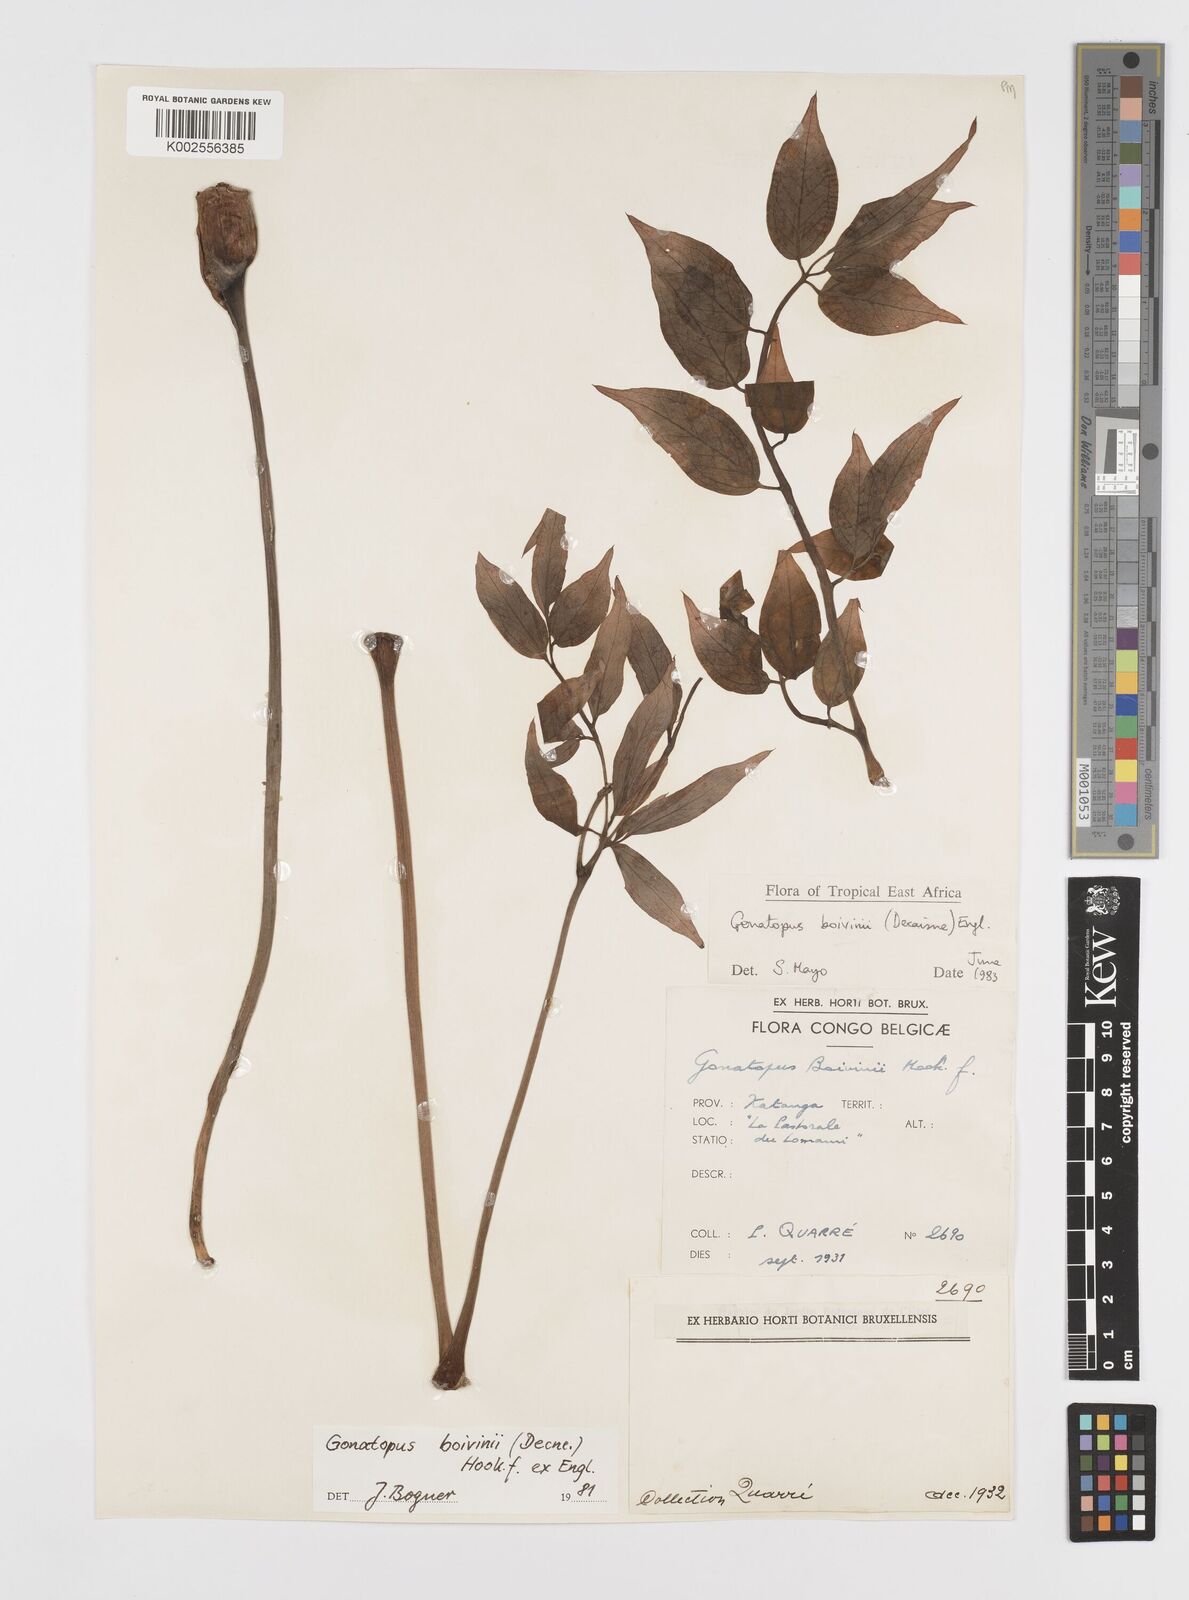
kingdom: Plantae
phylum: Tracheophyta
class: Liliopsida
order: Alismatales
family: Araceae
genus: Gonatopus
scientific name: Gonatopus boivinii
